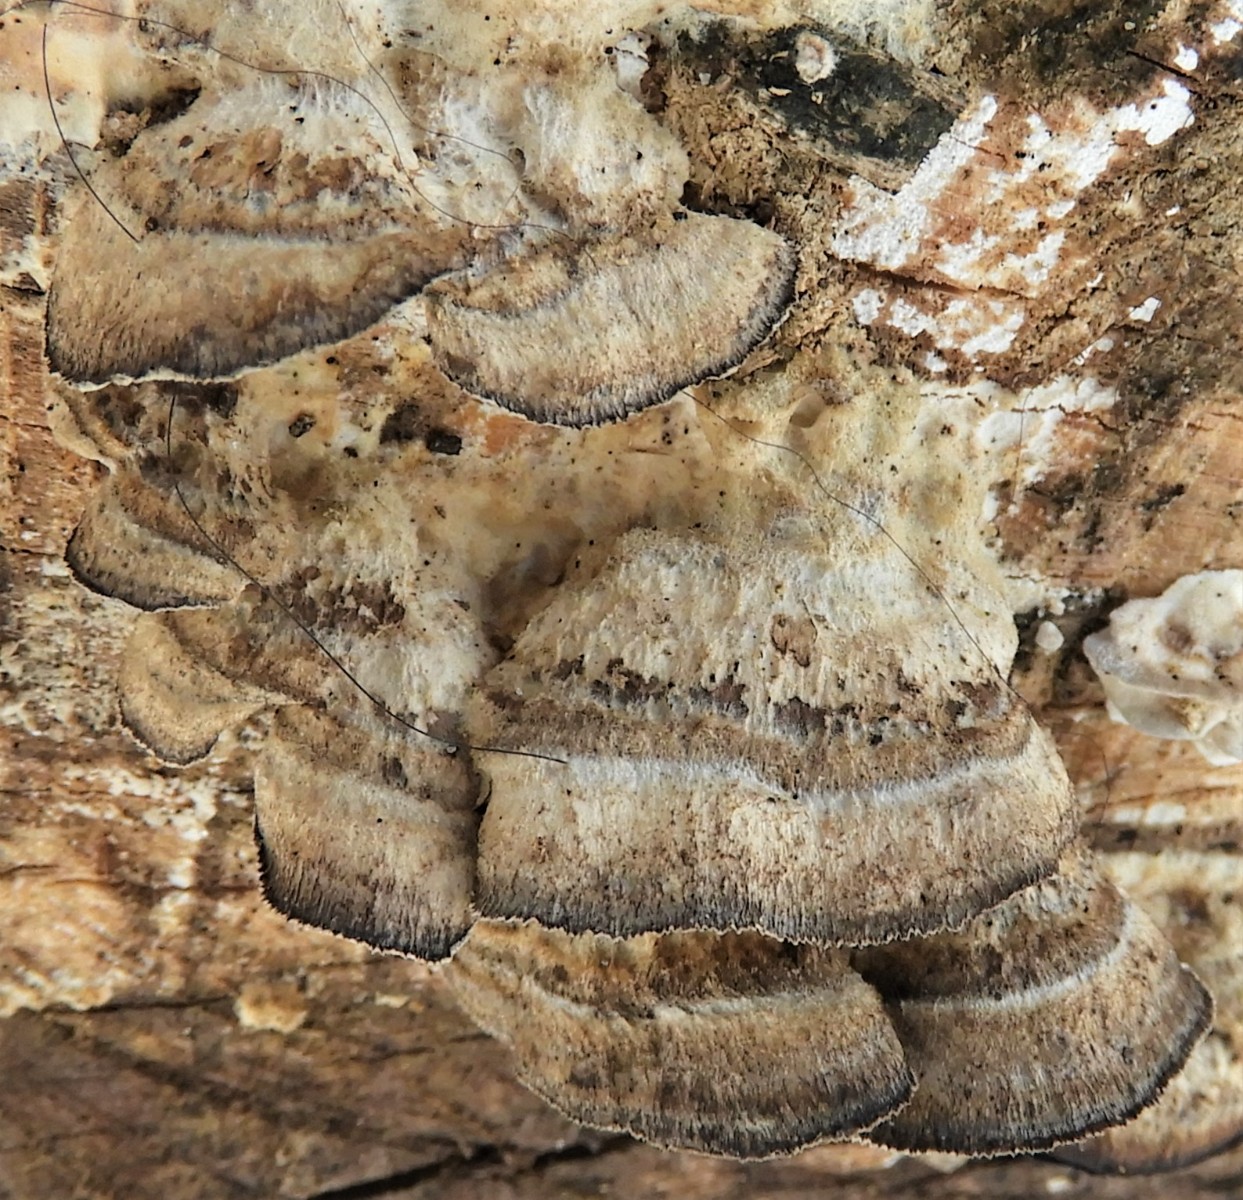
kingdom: Fungi
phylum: Basidiomycota
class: Agaricomycetes
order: Polyporales
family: Phanerochaetaceae
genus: Bjerkandera
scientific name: Bjerkandera adusta
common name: sveden sodporesvamp
